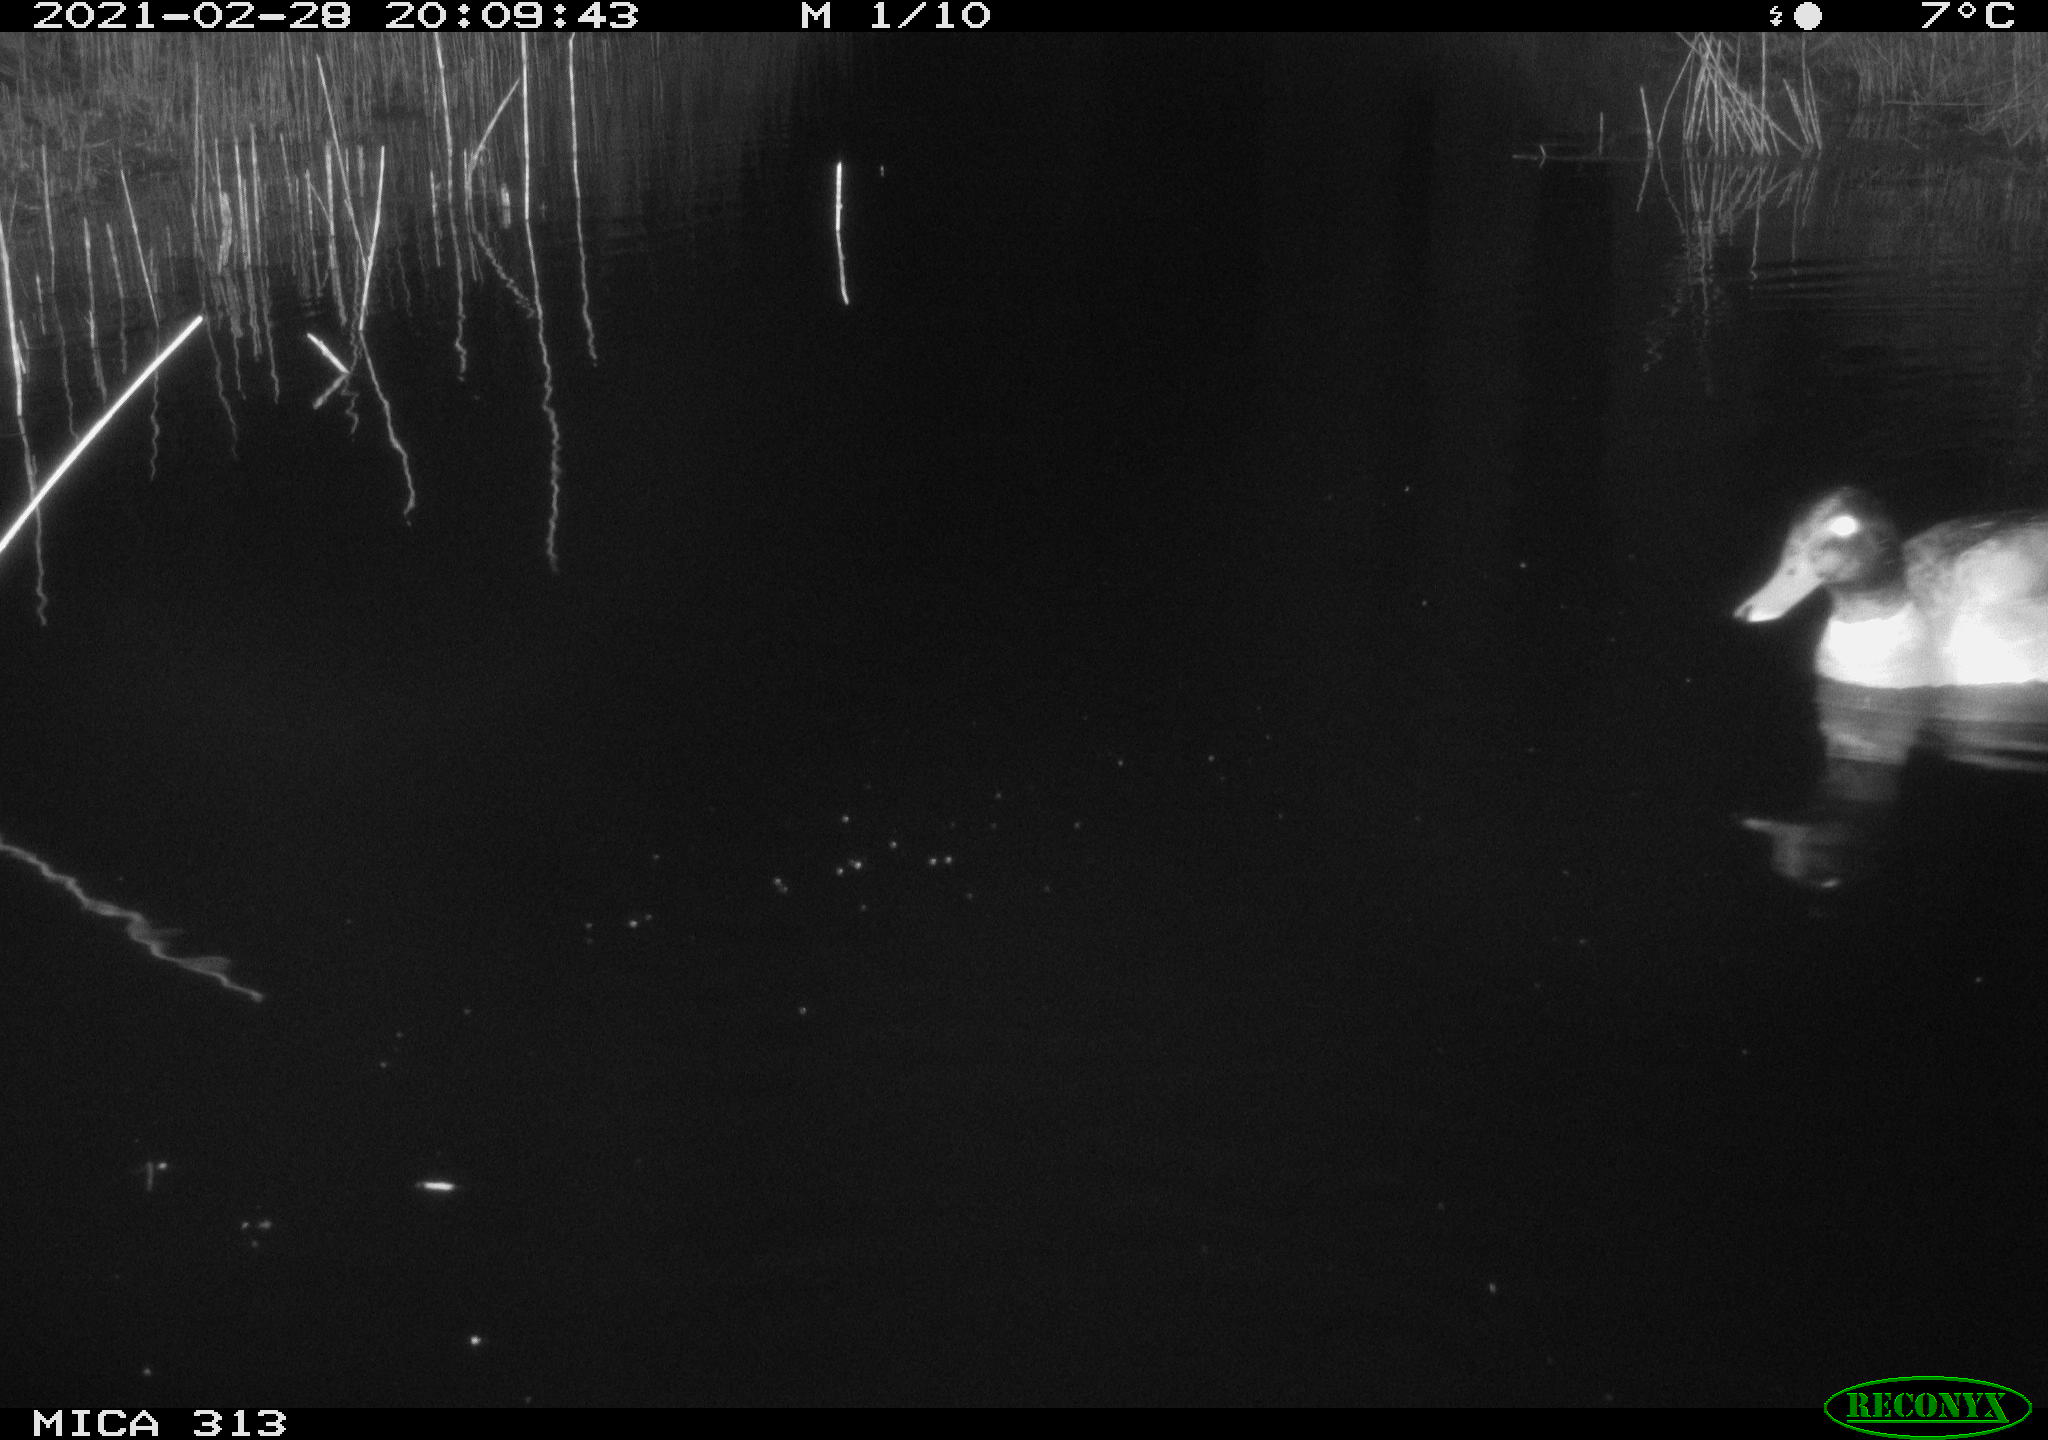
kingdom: Animalia
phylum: Chordata
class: Aves
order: Anseriformes
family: Anatidae
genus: Anas
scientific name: Anas
